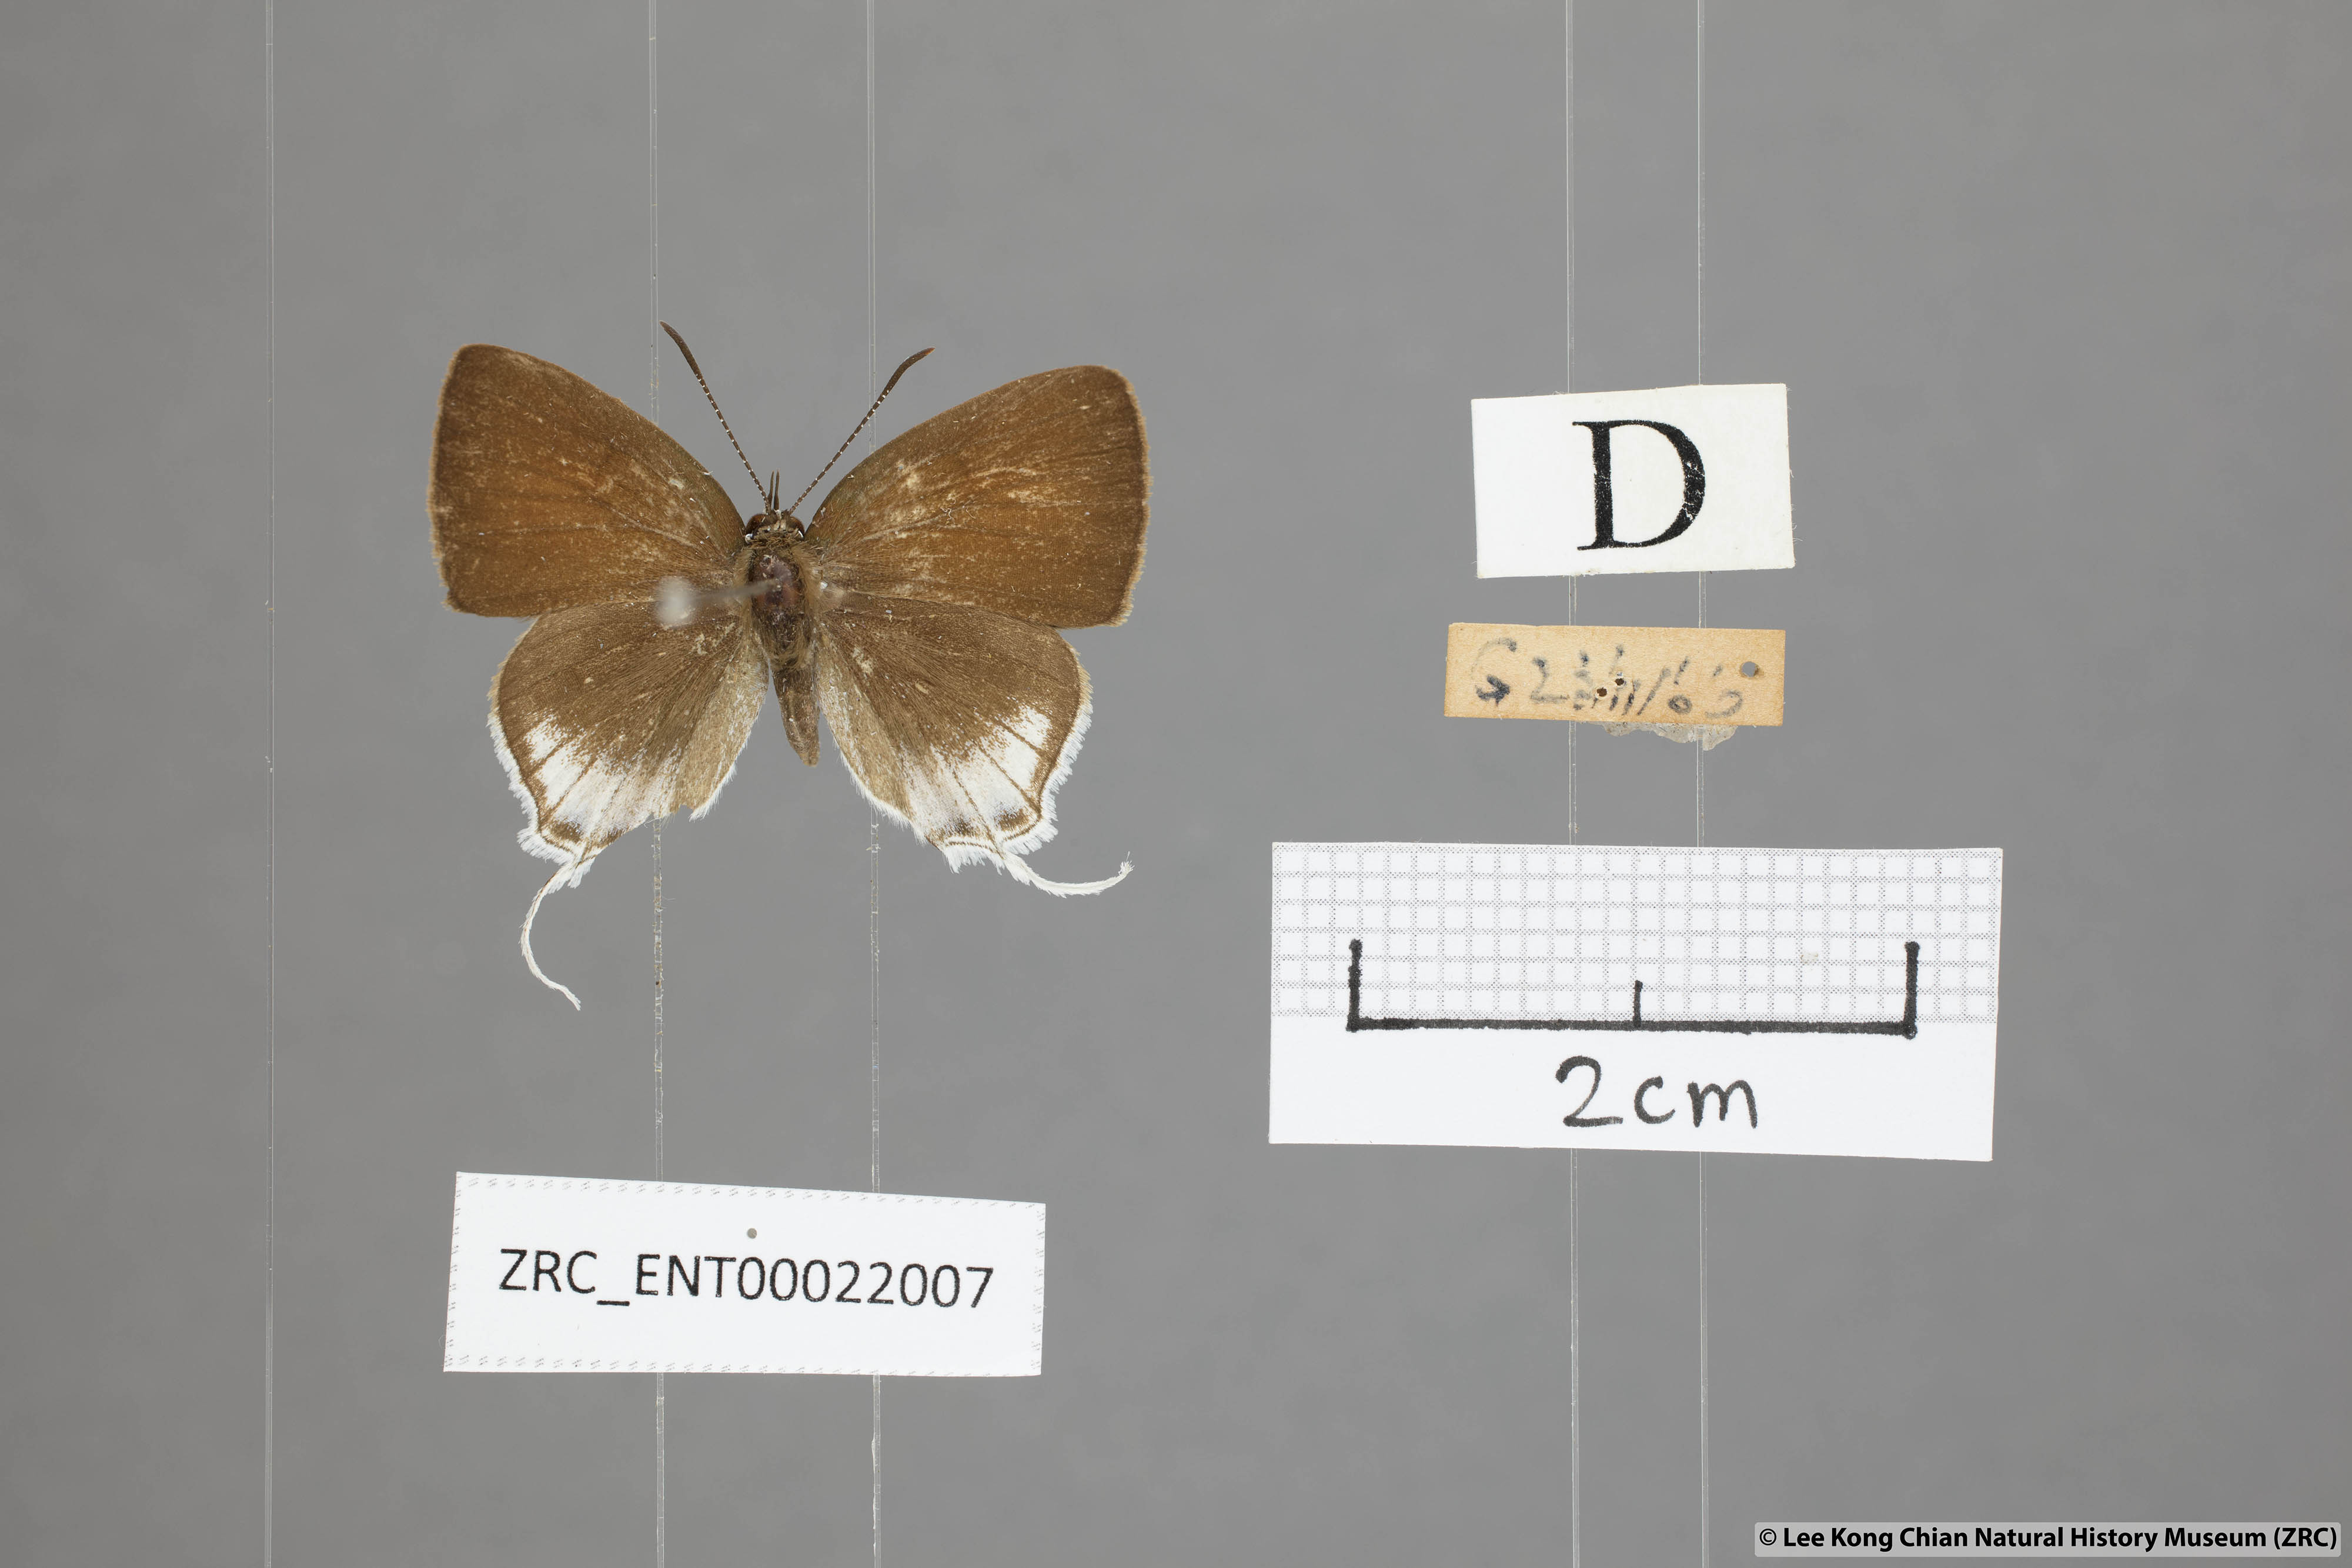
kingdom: Animalia
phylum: Arthropoda
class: Insecta
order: Lepidoptera
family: Lycaenidae
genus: Sinthusa
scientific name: Sinthusa malika
